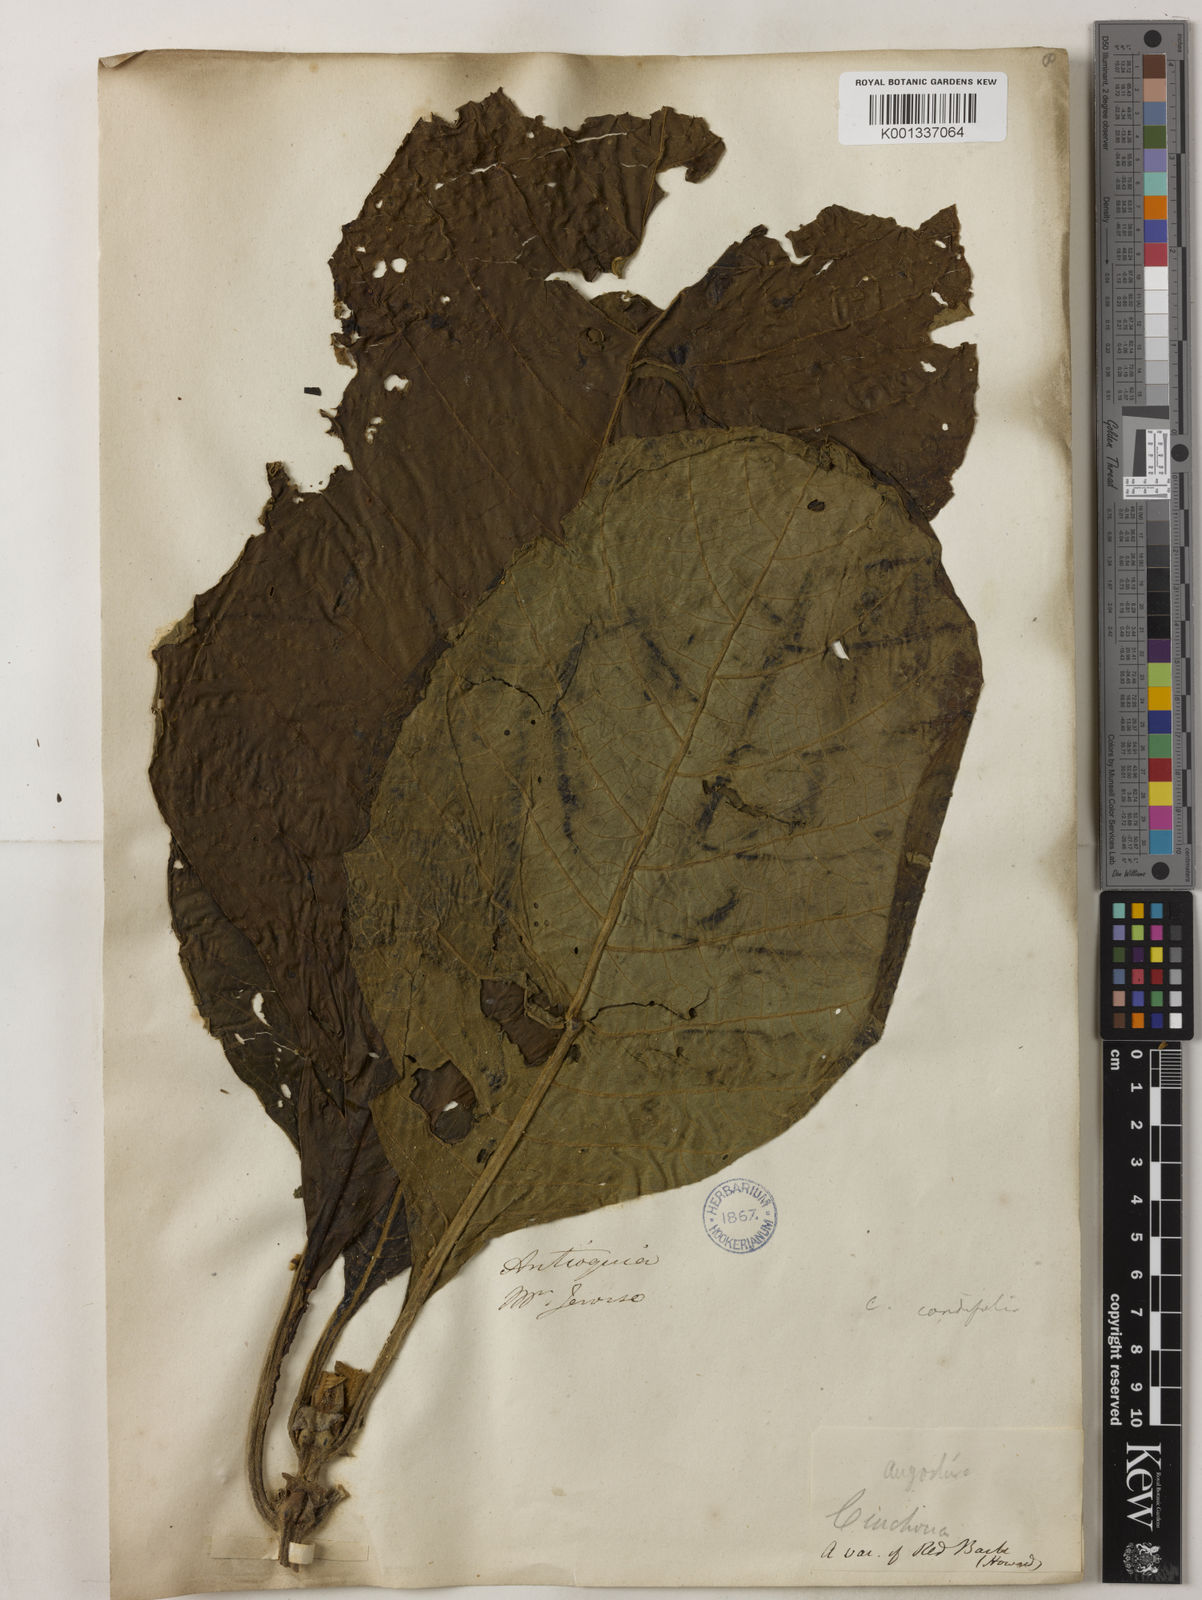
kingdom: Plantae
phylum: Tracheophyta
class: Magnoliopsida
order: Gentianales
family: Rubiaceae
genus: Cinchona
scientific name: Cinchona pubescens
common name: Quinine
